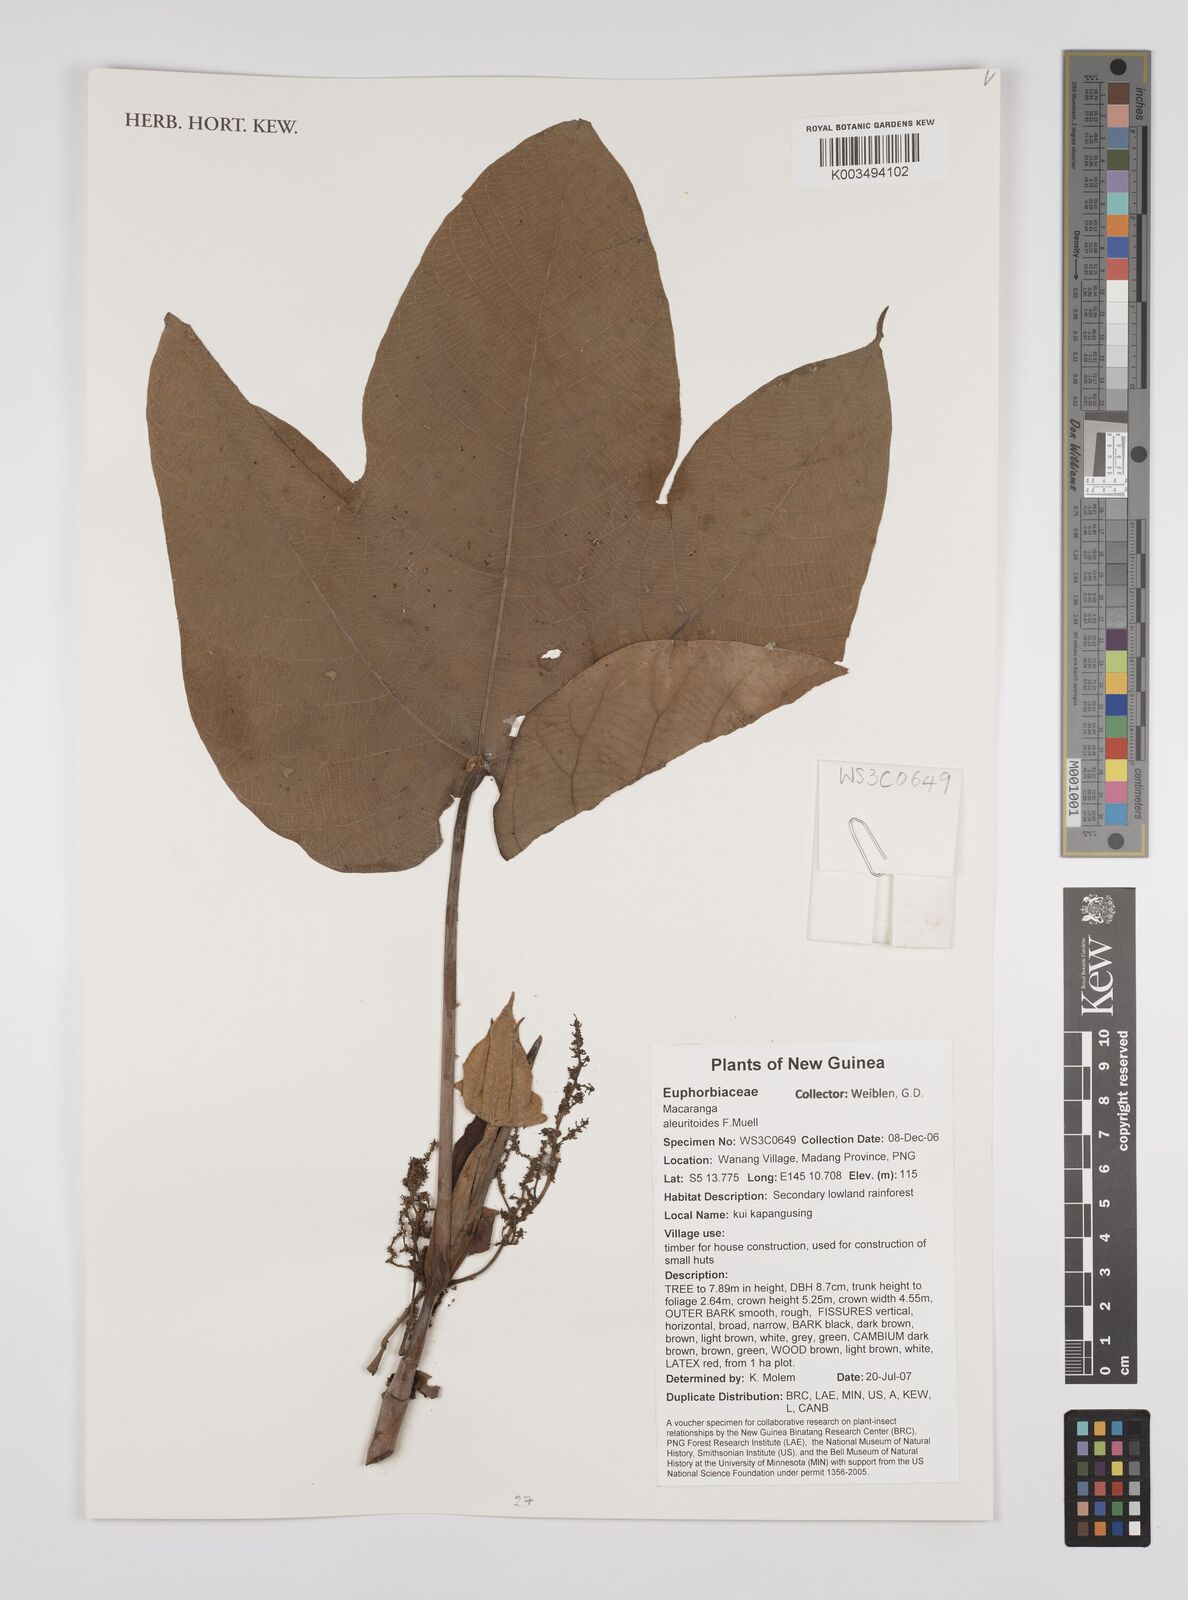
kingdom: Plantae
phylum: Tracheophyta
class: Magnoliopsida
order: Malpighiales
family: Euphorbiaceae
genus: Macaranga
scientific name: Macaranga aleuritoides
